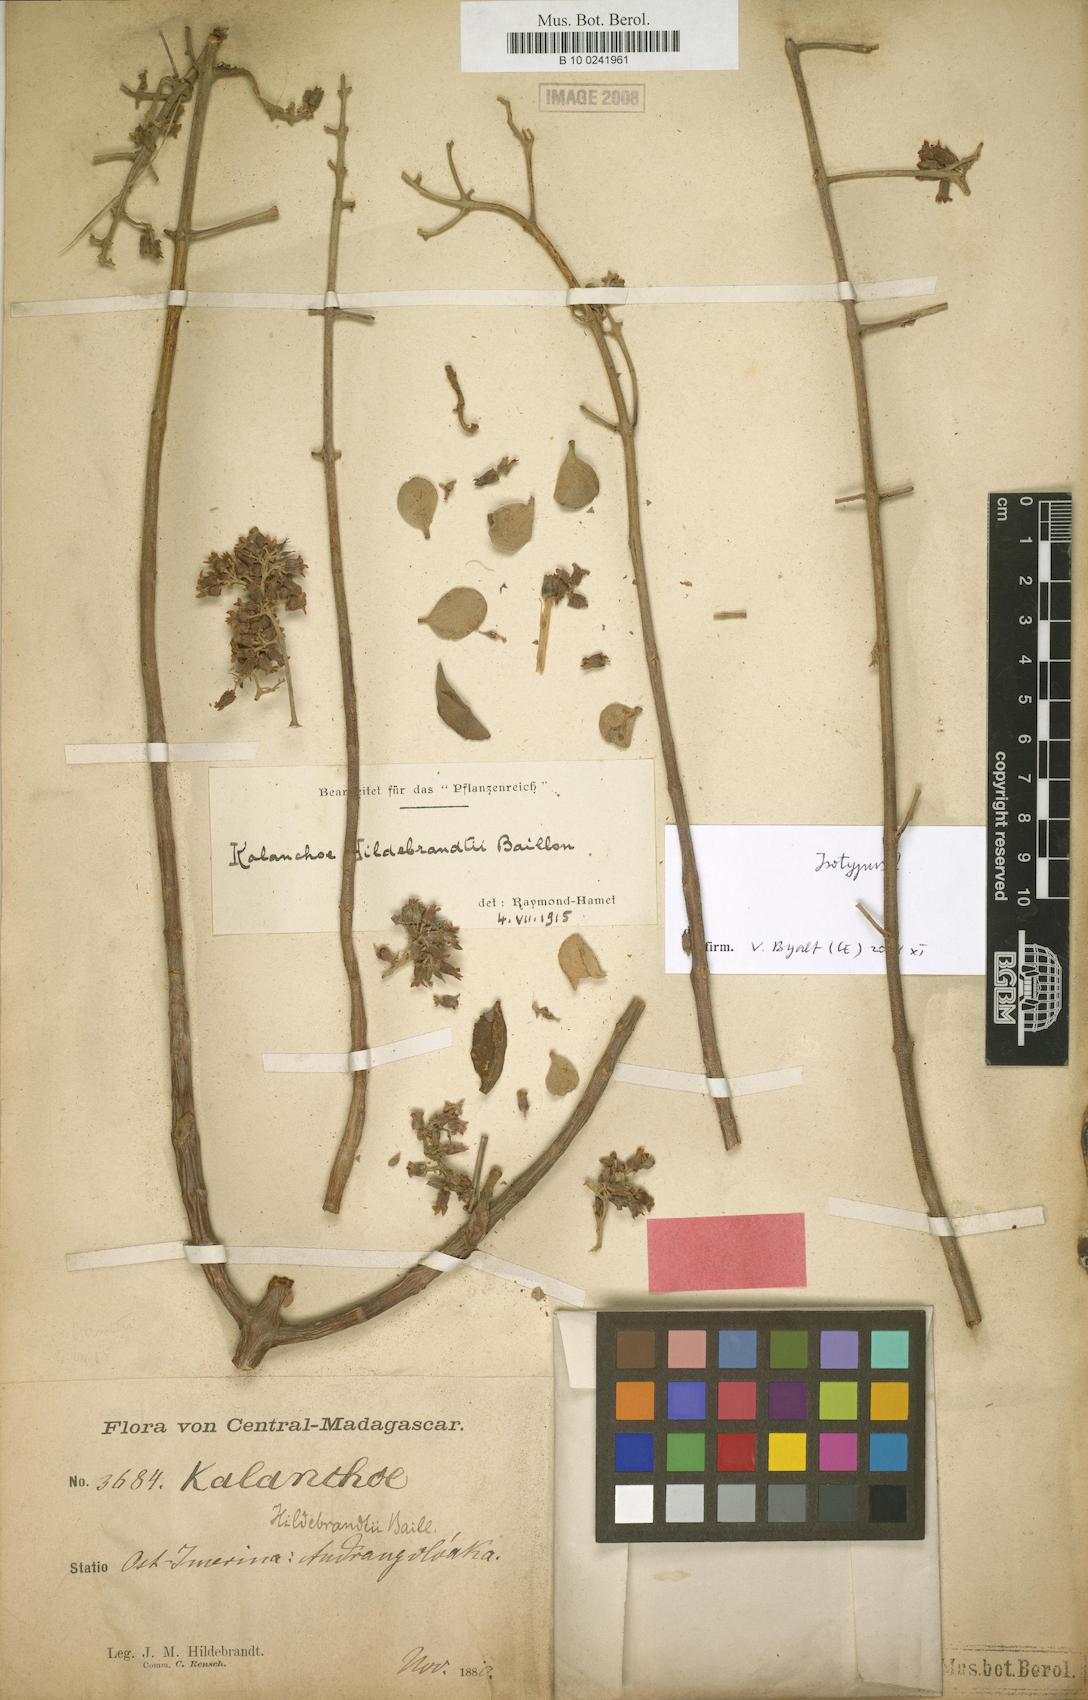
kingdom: Plantae
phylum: Tracheophyta
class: Magnoliopsida
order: Saxifragales
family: Crassulaceae
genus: Kalanchoe
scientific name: Kalanchoe hildebrandtii
